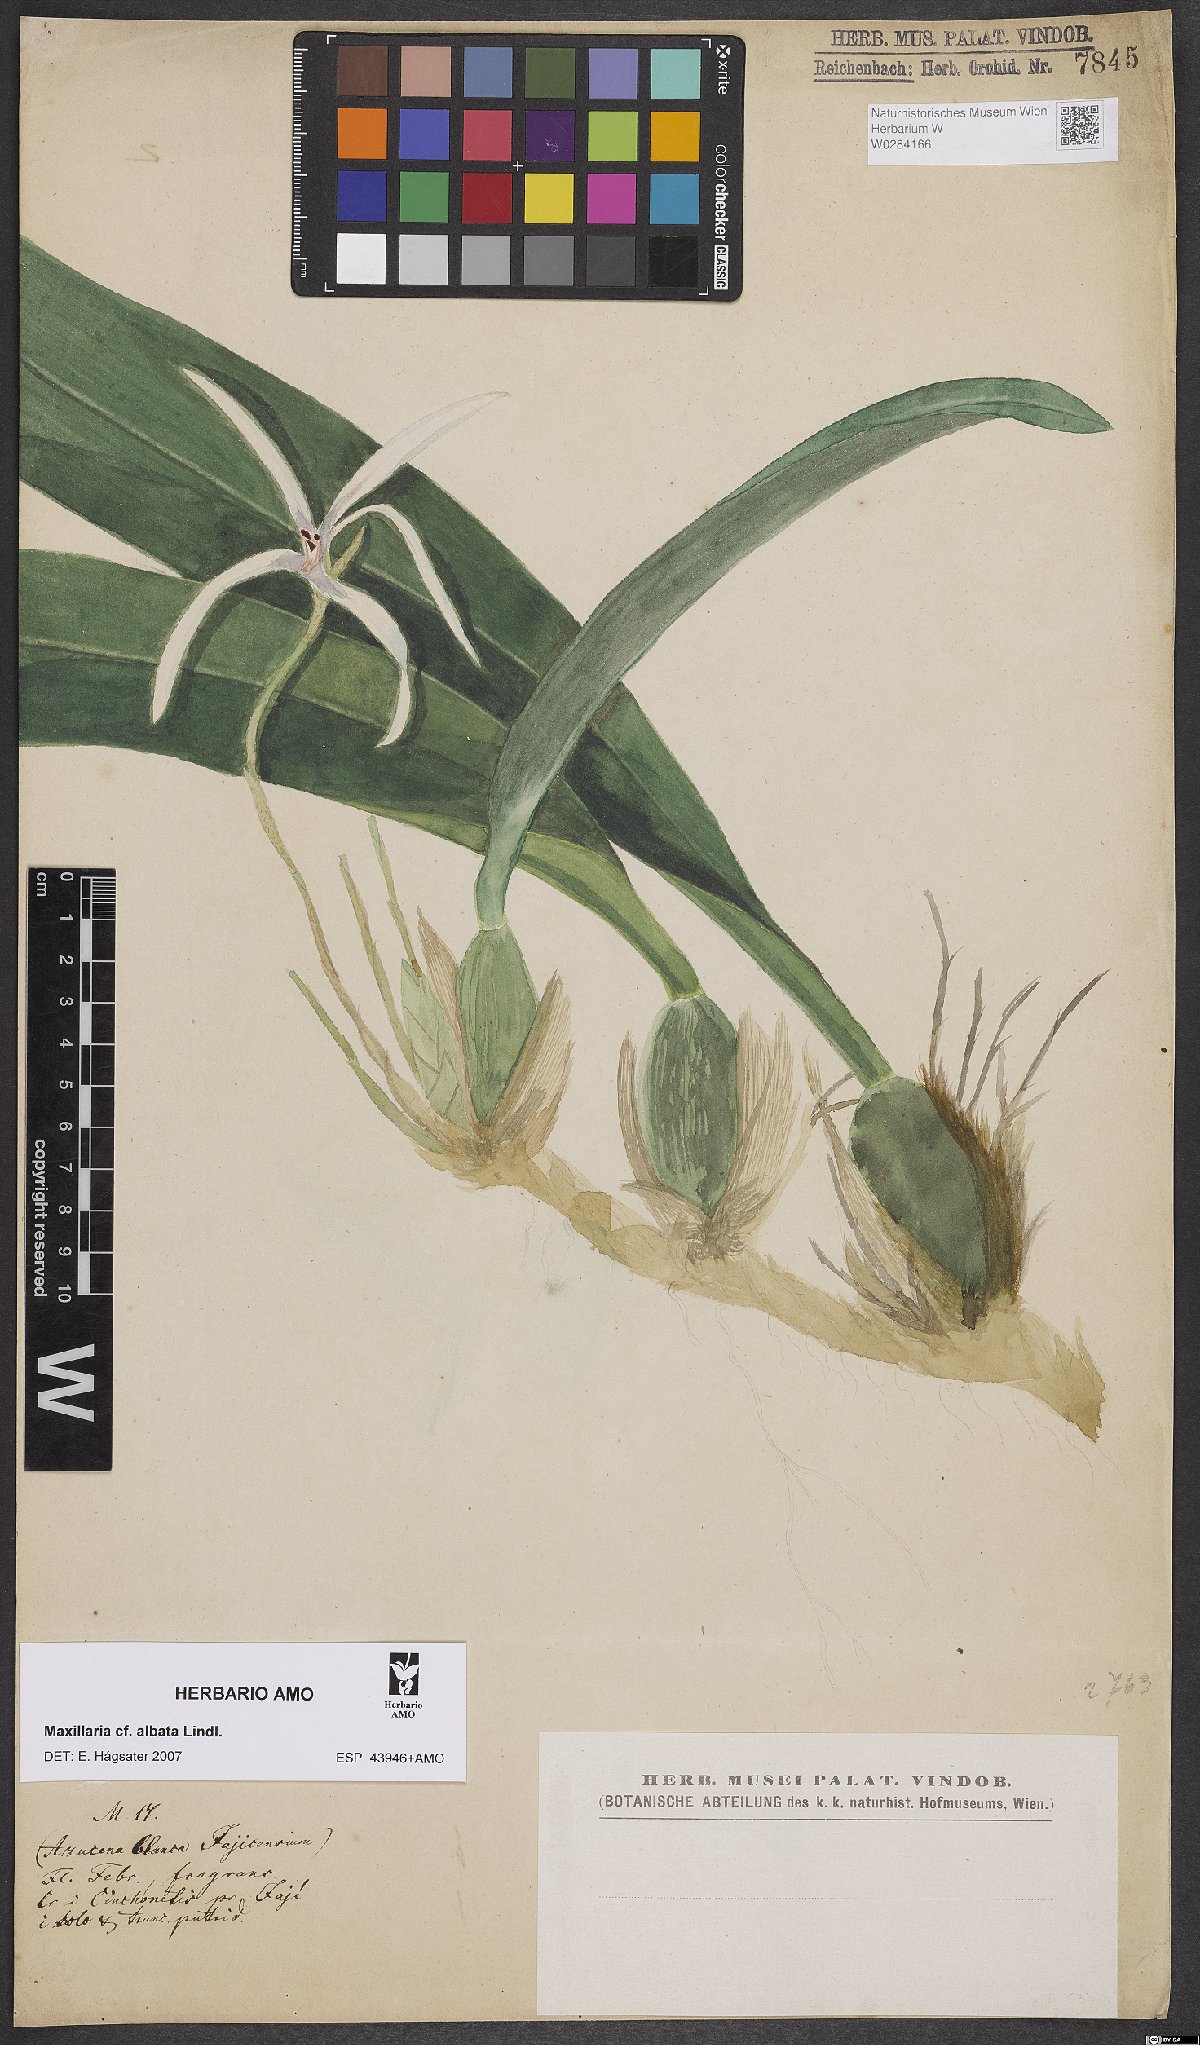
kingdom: Plantae
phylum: Tracheophyta
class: Liliopsida
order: Asparagales
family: Orchidaceae
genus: Maxillaria
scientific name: Maxillaria albata
